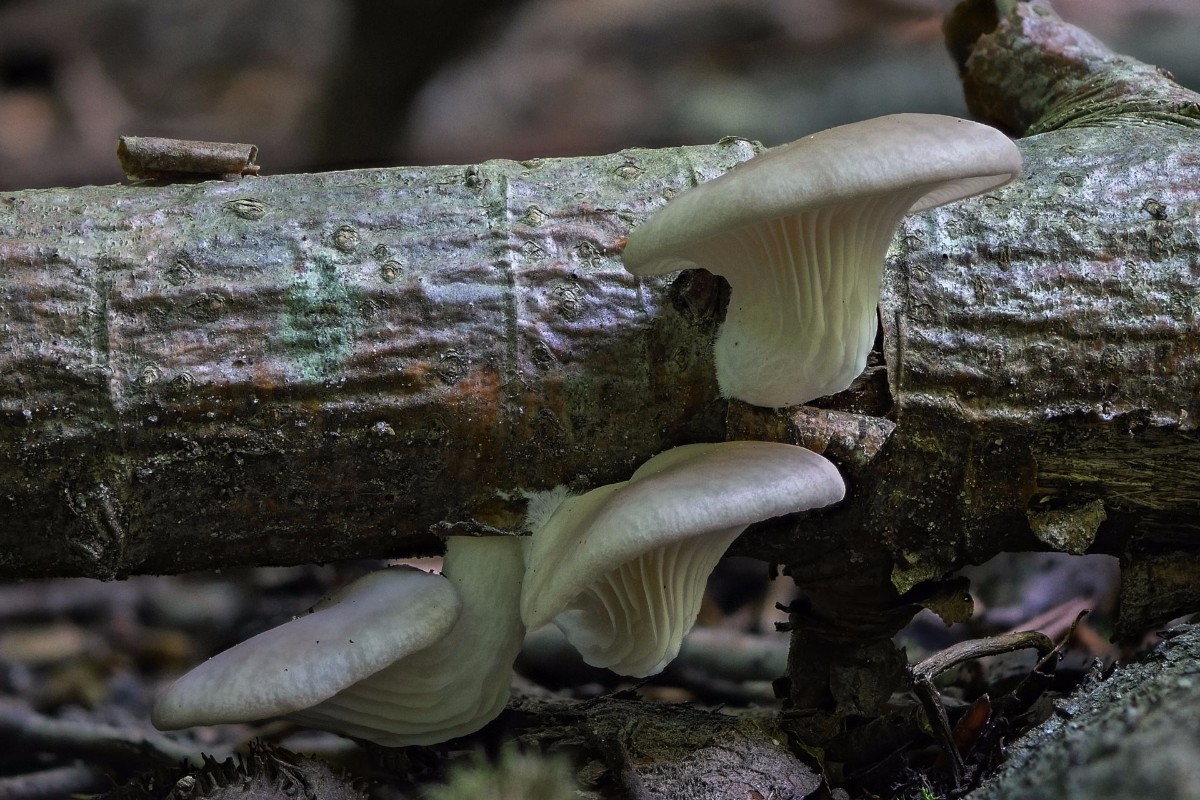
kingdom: Fungi
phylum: Basidiomycota
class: Agaricomycetes
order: Agaricales
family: Pleurotaceae
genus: Pleurotus
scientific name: Pleurotus pulmonarius
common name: sommer-østershat
